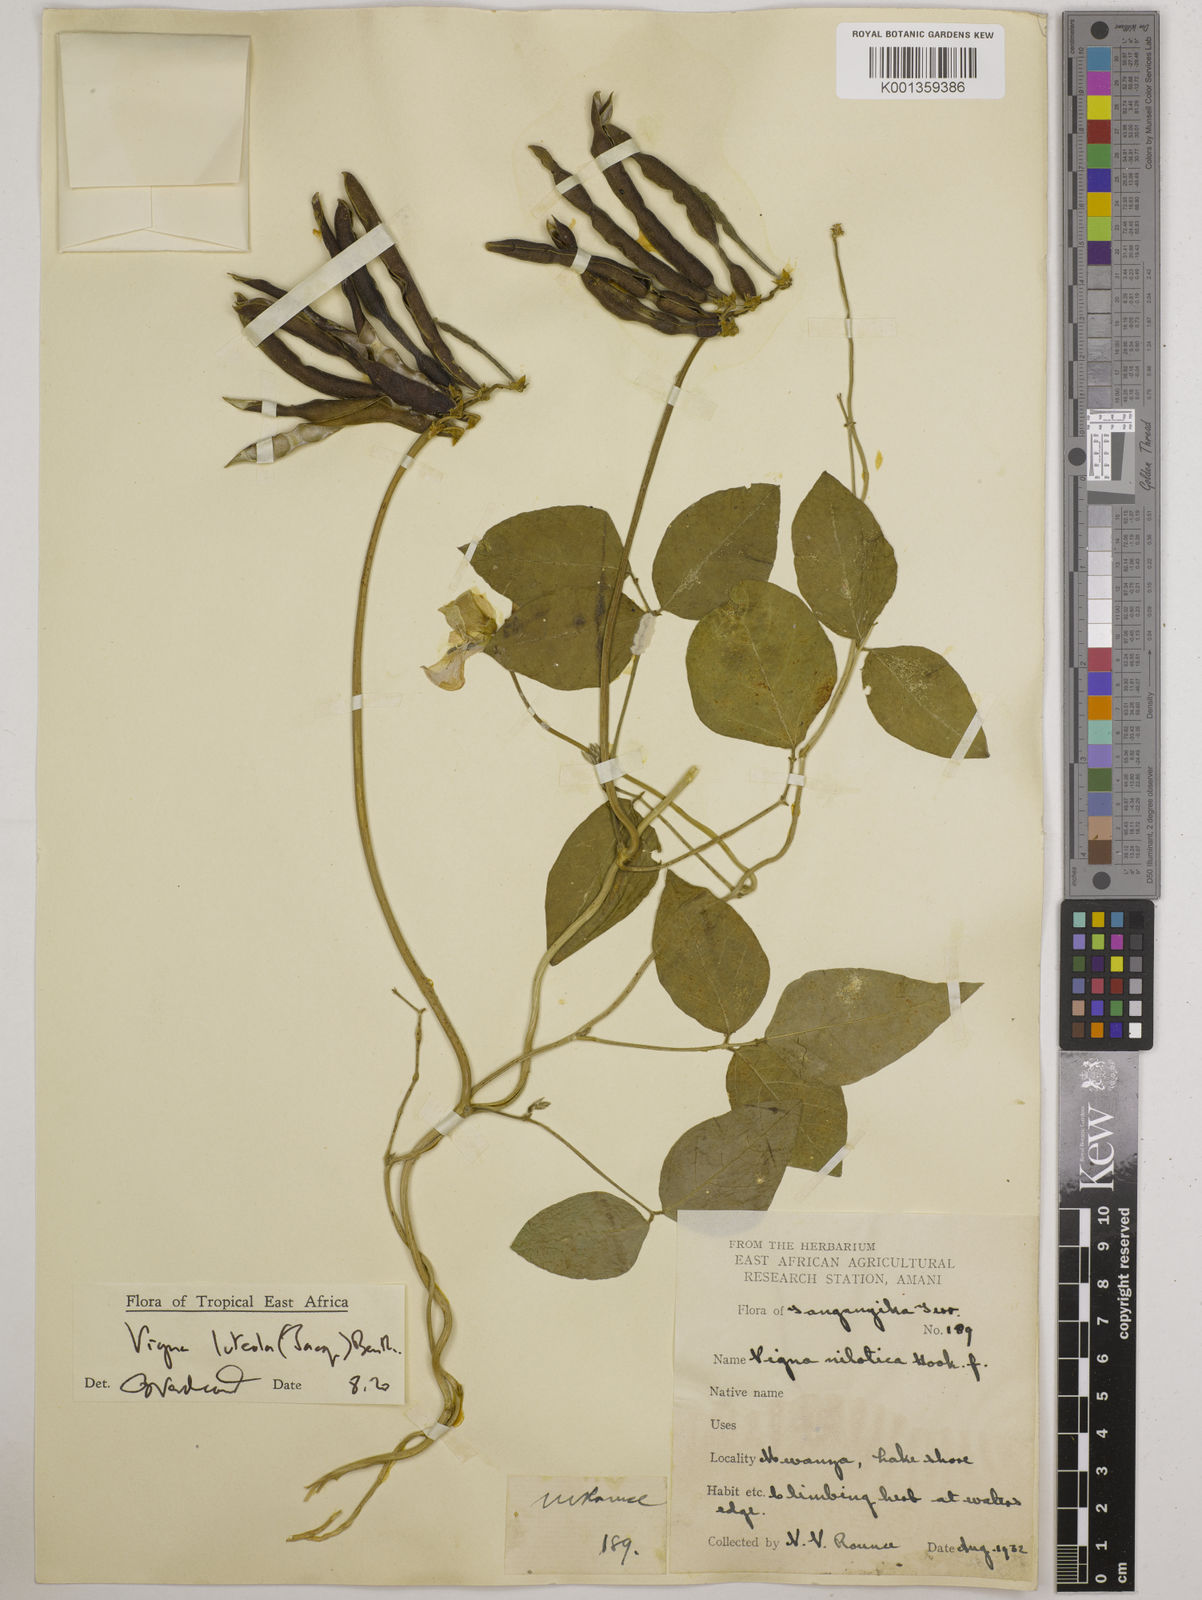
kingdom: Plantae
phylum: Tracheophyta
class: Magnoliopsida
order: Fabales
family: Fabaceae
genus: Vigna
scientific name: Vigna luteola
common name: Hairypod cowpea
